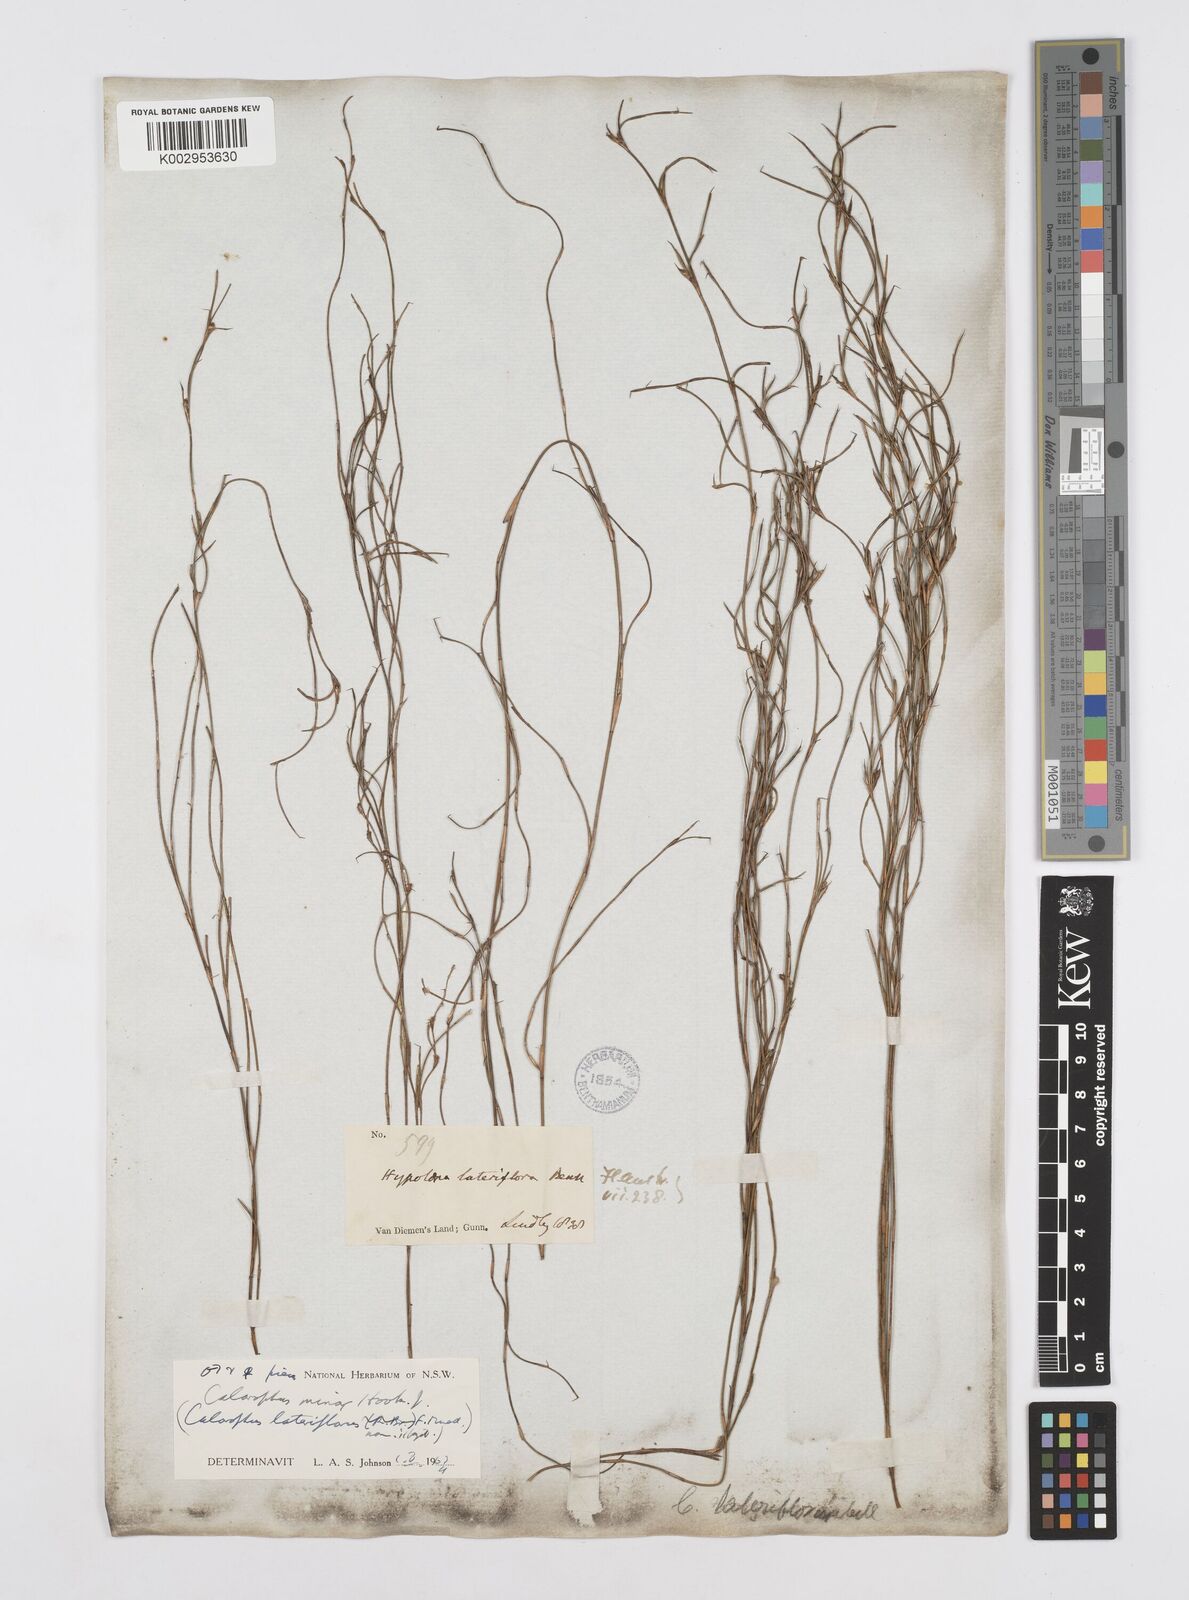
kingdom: Plantae
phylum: Tracheophyta
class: Liliopsida
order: Poales
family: Restionaceae
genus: Empodisma
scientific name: Empodisma minus
